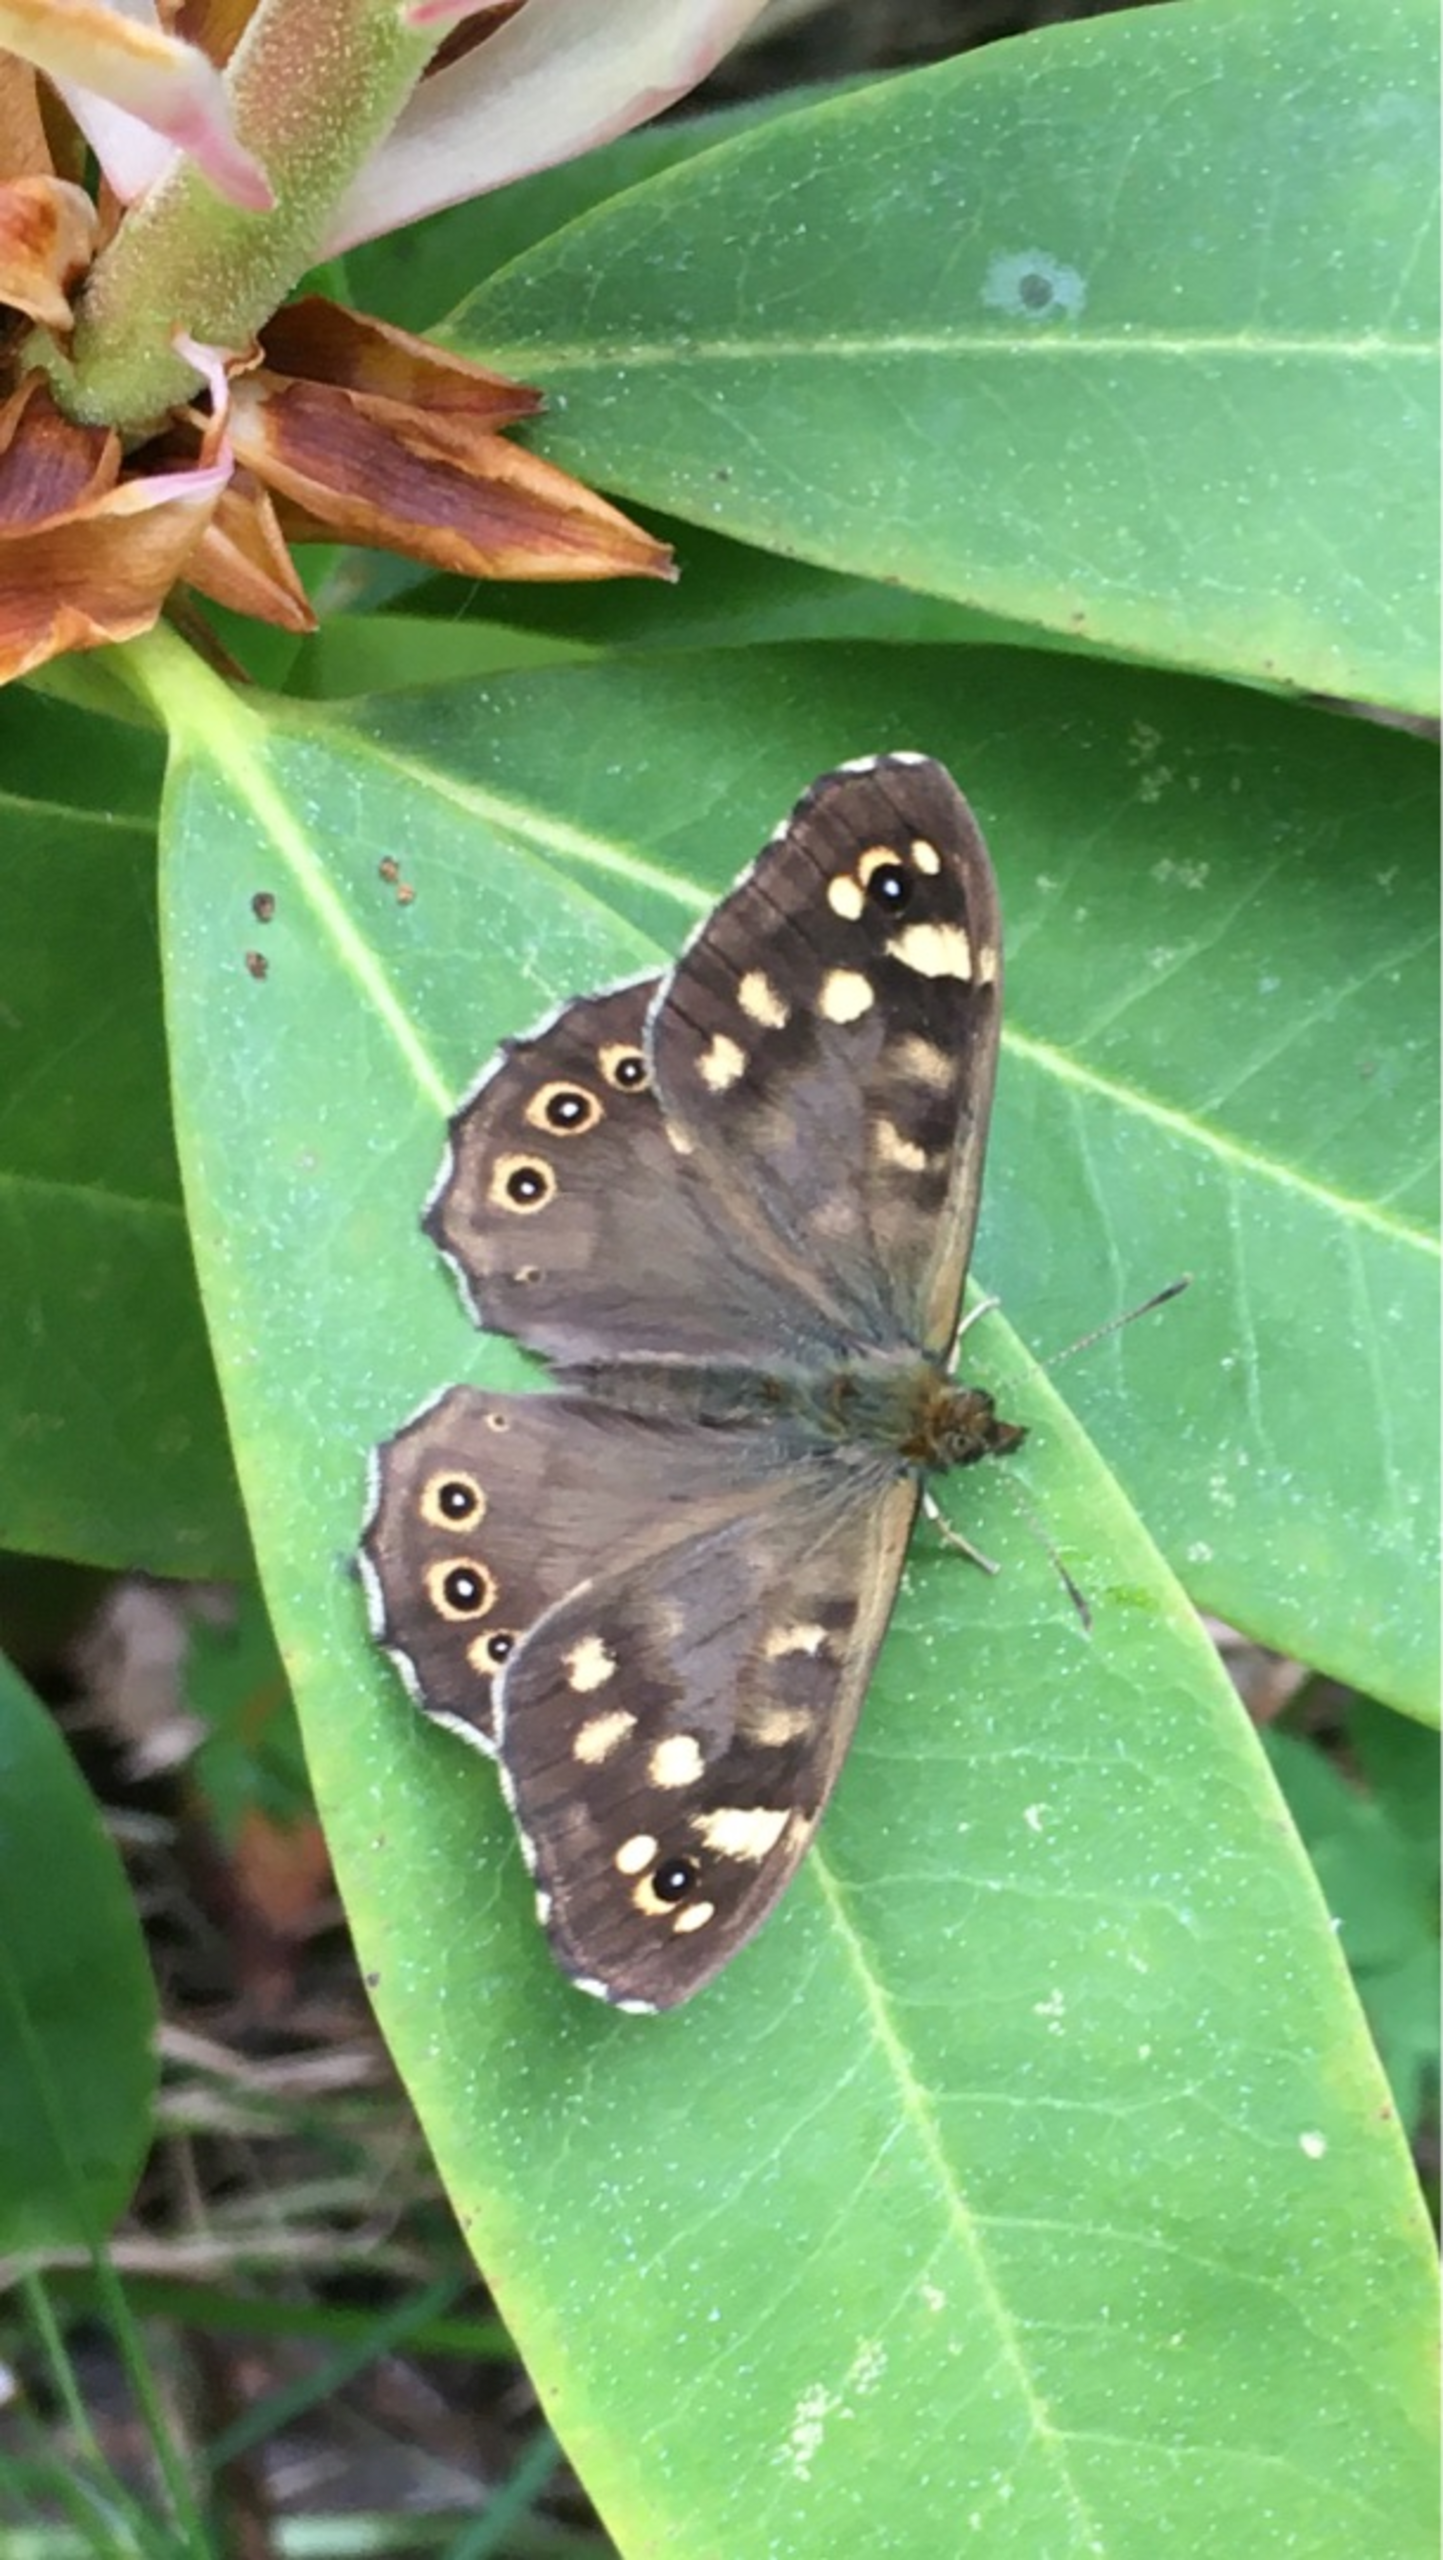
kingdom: Animalia
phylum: Arthropoda
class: Insecta
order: Lepidoptera
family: Nymphalidae
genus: Pararge
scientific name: Pararge aegeria
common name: Skovrandøje
